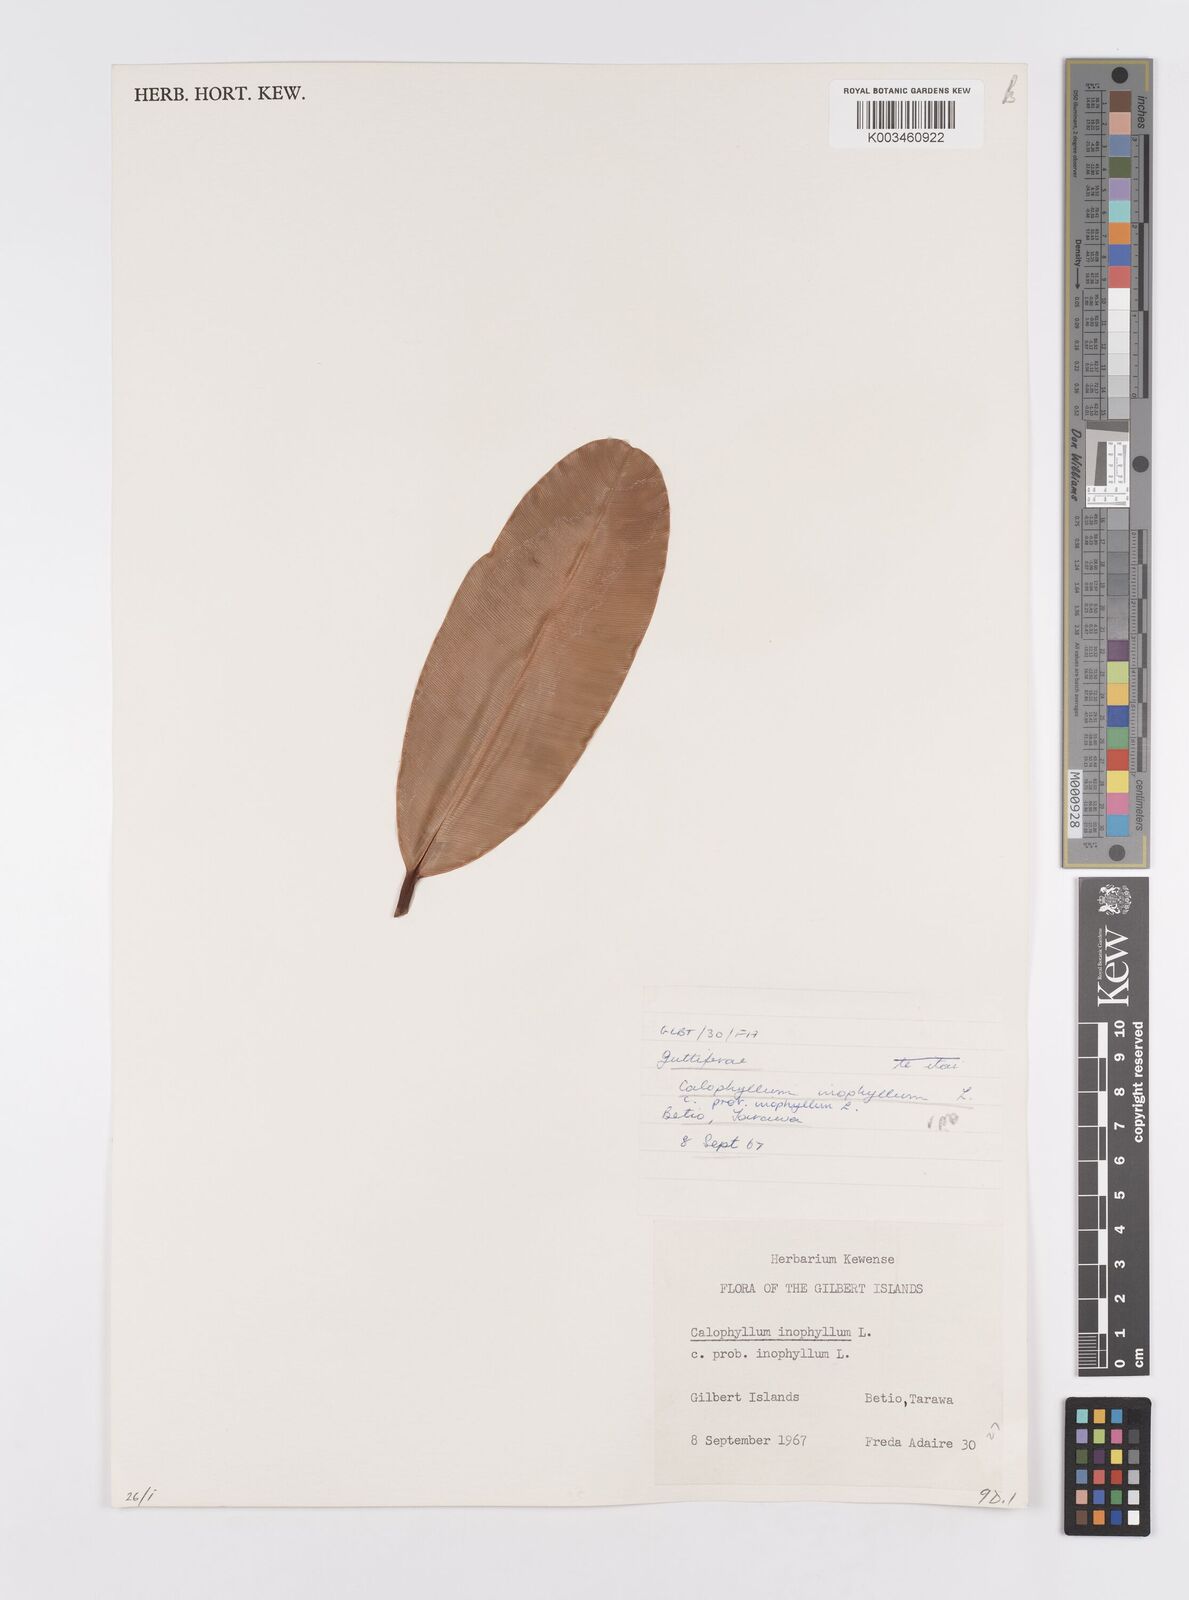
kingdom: Plantae
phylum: Tracheophyta
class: Magnoliopsida
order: Malpighiales
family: Calophyllaceae
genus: Calophyllum
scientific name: Calophyllum inophyllum
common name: Alexandrian laurel
